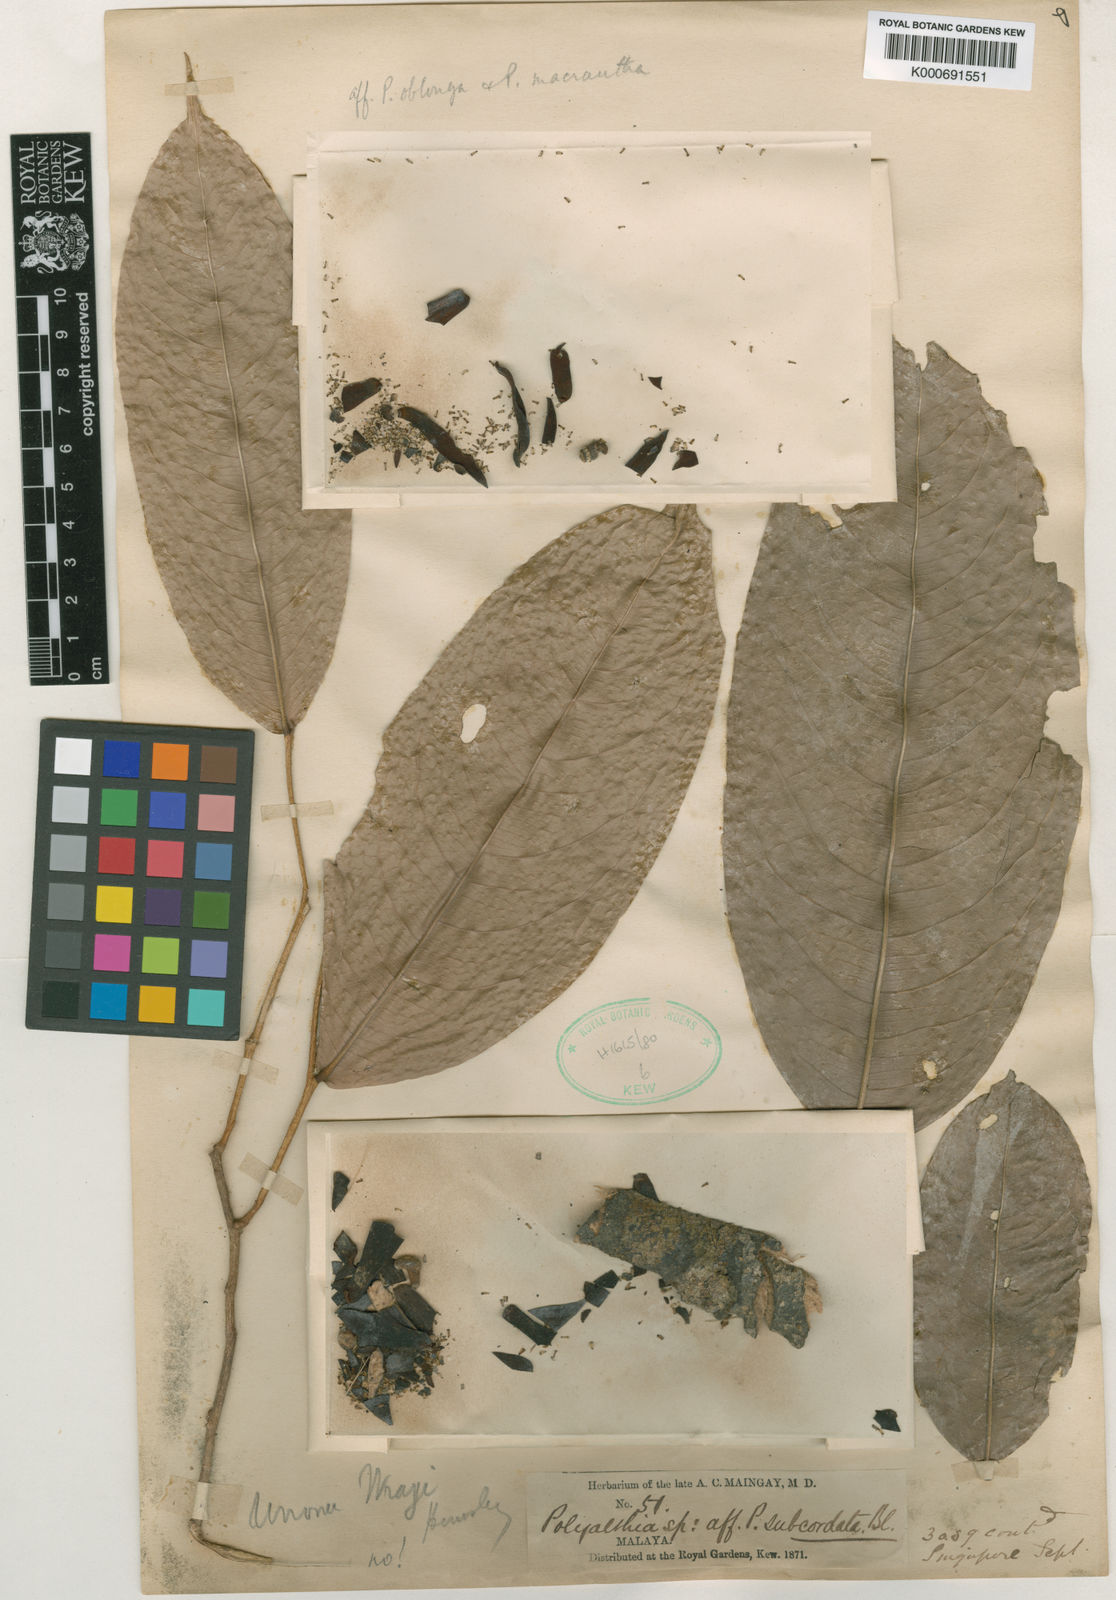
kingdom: Plantae
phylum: Tracheophyta
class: Magnoliopsida
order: Magnoliales
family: Annonaceae
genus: Polyalthia
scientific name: Polyalthia lateritia
